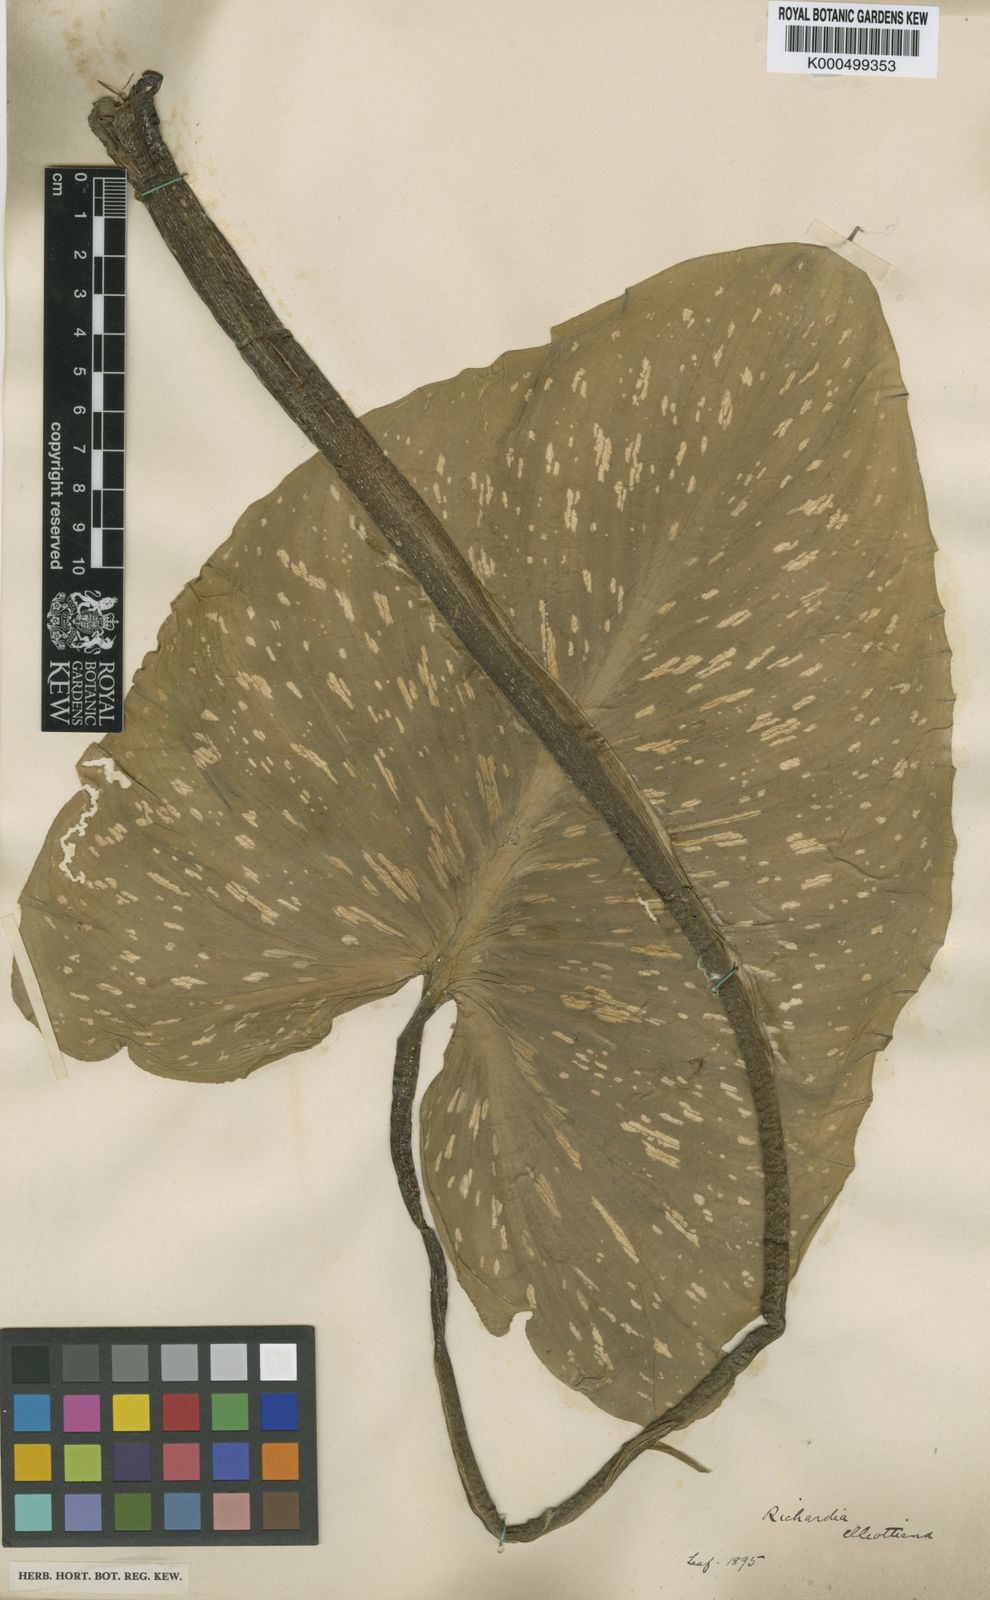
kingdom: Plantae
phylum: Tracheophyta
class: Liliopsida
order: Alismatales
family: Araceae
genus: Zantedeschia
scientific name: Zantedeschia elliottiana
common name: Yellow calla
